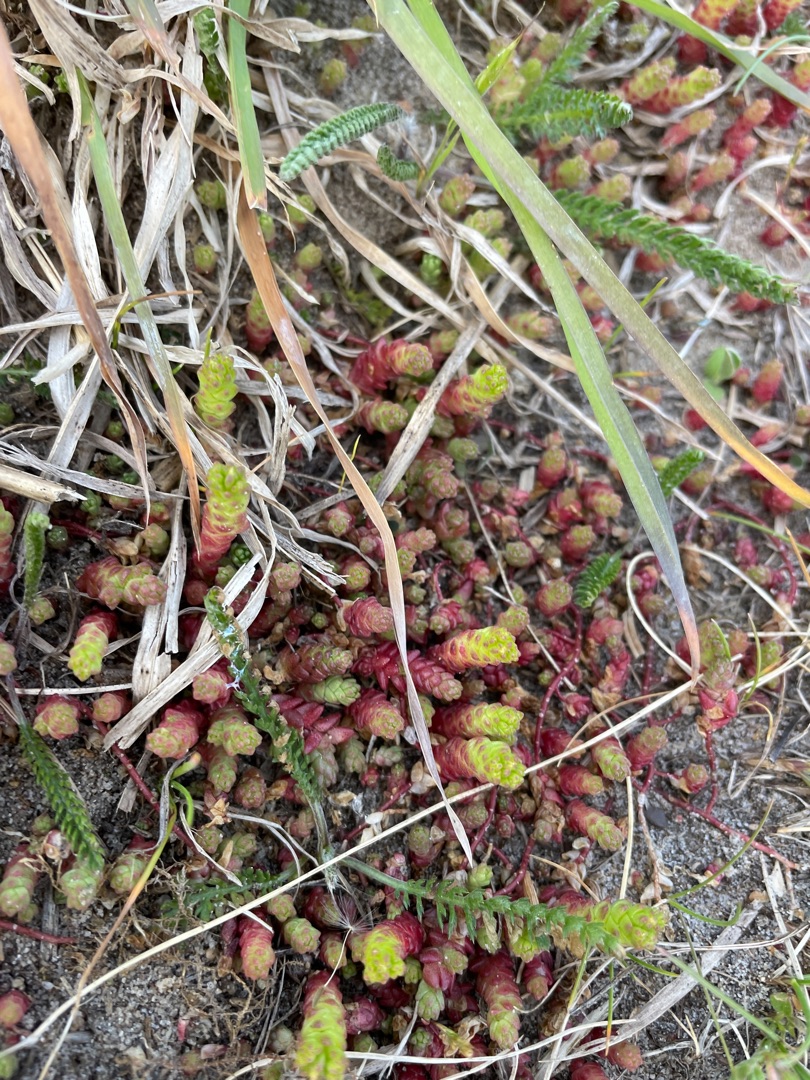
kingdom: Plantae
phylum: Tracheophyta
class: Magnoliopsida
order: Saxifragales
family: Crassulaceae
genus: Sedum
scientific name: Sedum acre
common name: Bidende stenurt
